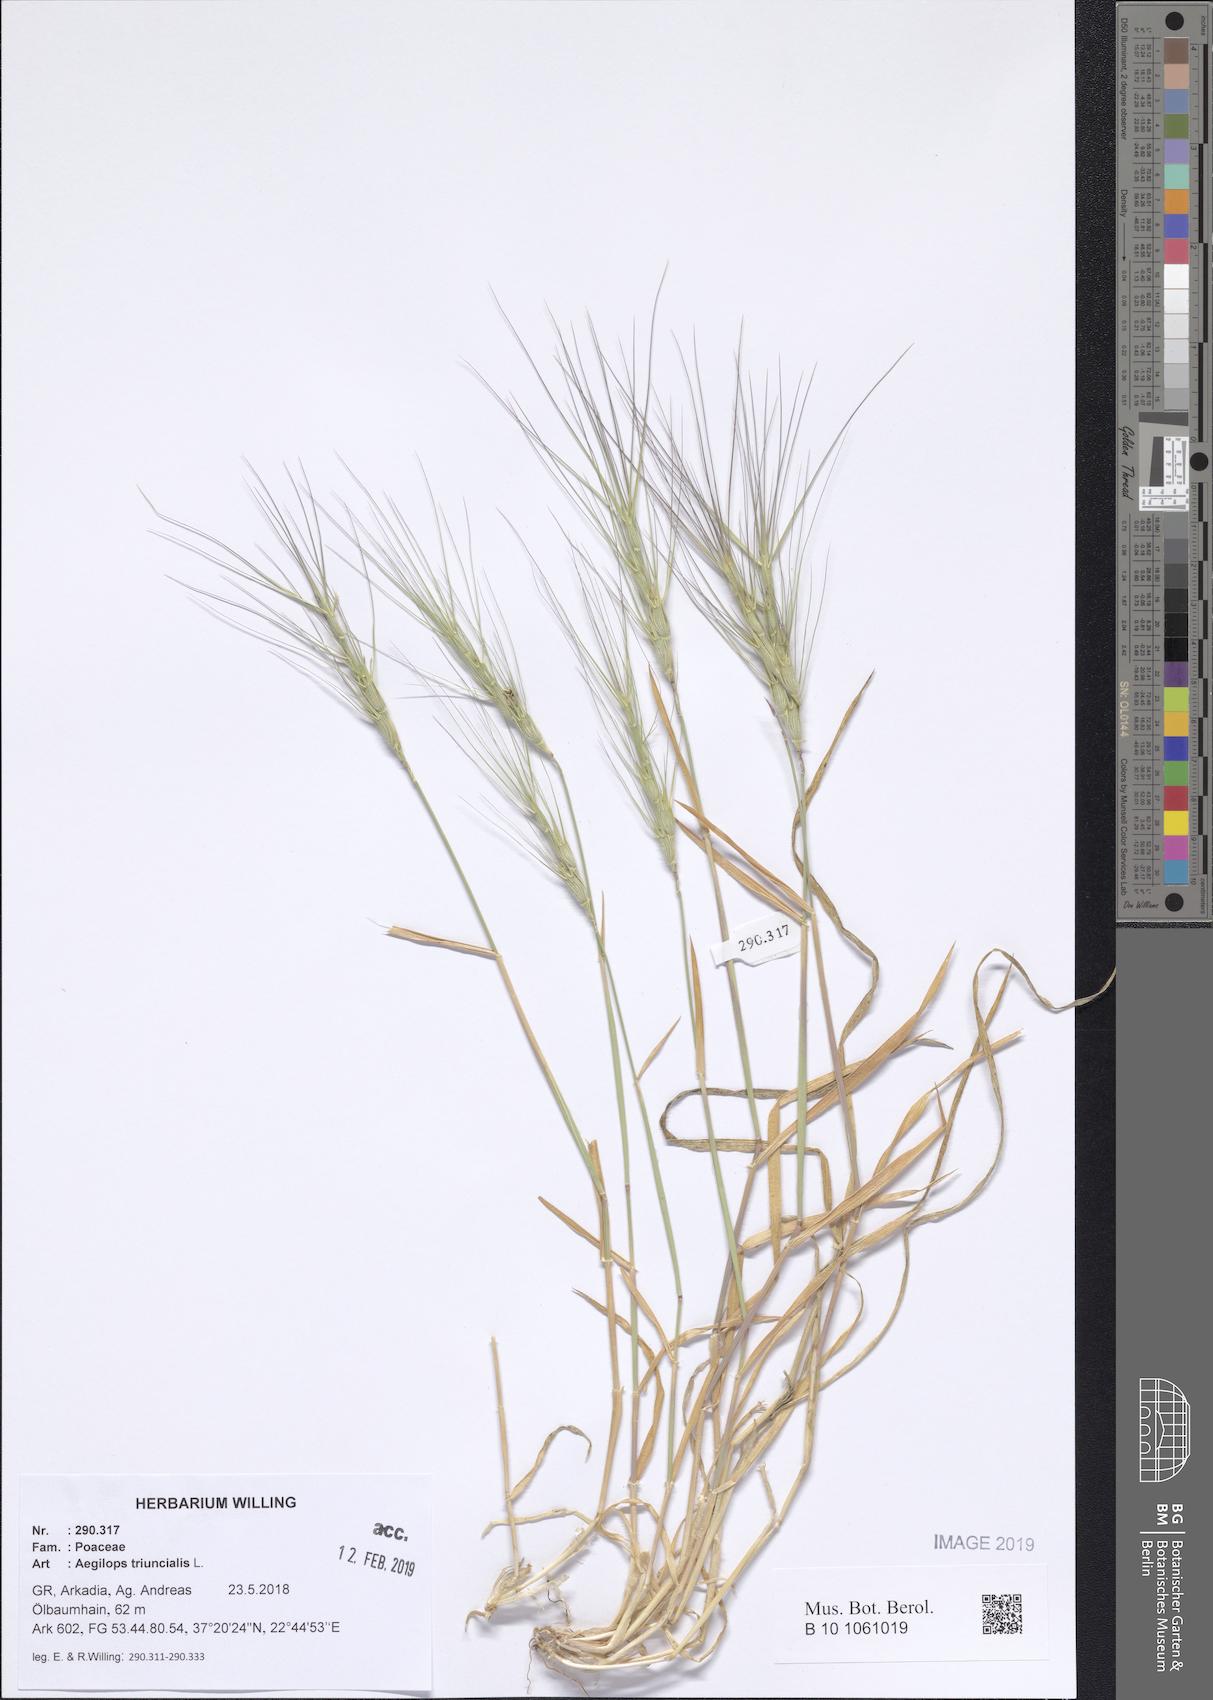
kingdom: Plantae
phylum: Tracheophyta
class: Liliopsida
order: Poales
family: Poaceae
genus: Aegilops
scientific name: Aegilops triuncialis
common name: Barb goat grass
